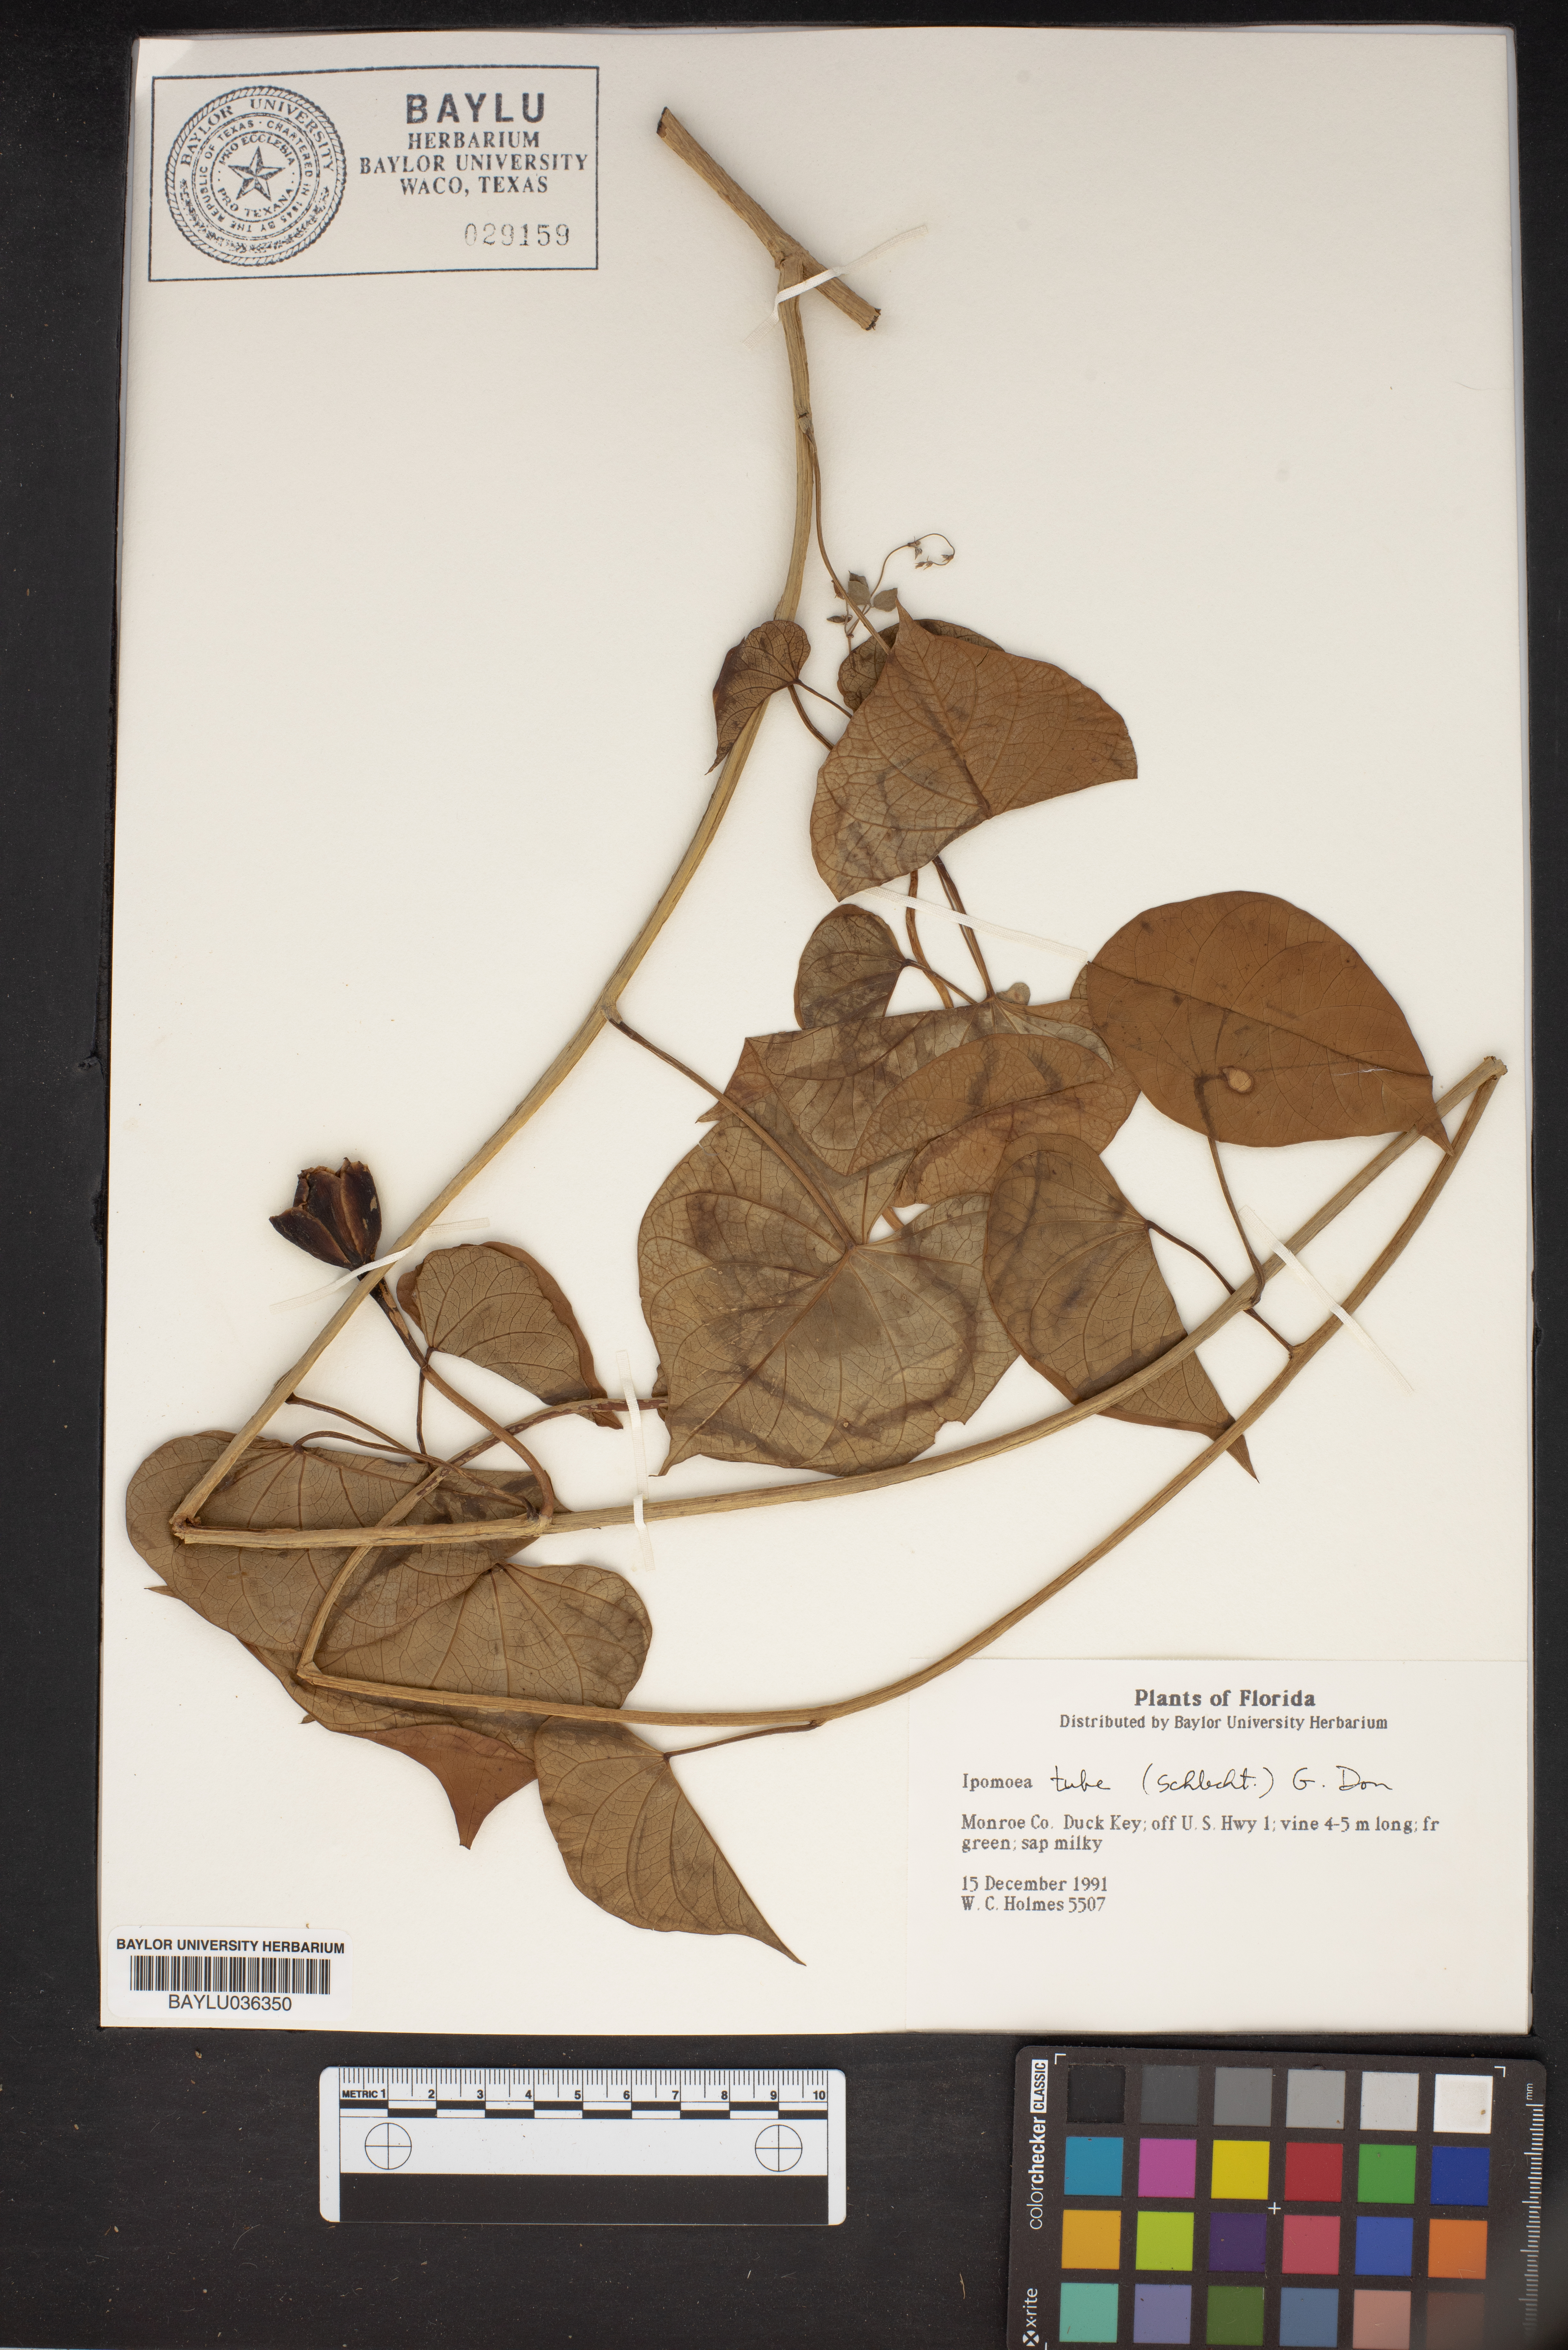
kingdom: Plantae
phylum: Tracheophyta
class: Magnoliopsida
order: Solanales
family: Convolvulaceae
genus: Ipomoea
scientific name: Ipomoea violacea
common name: Beach moonflower
